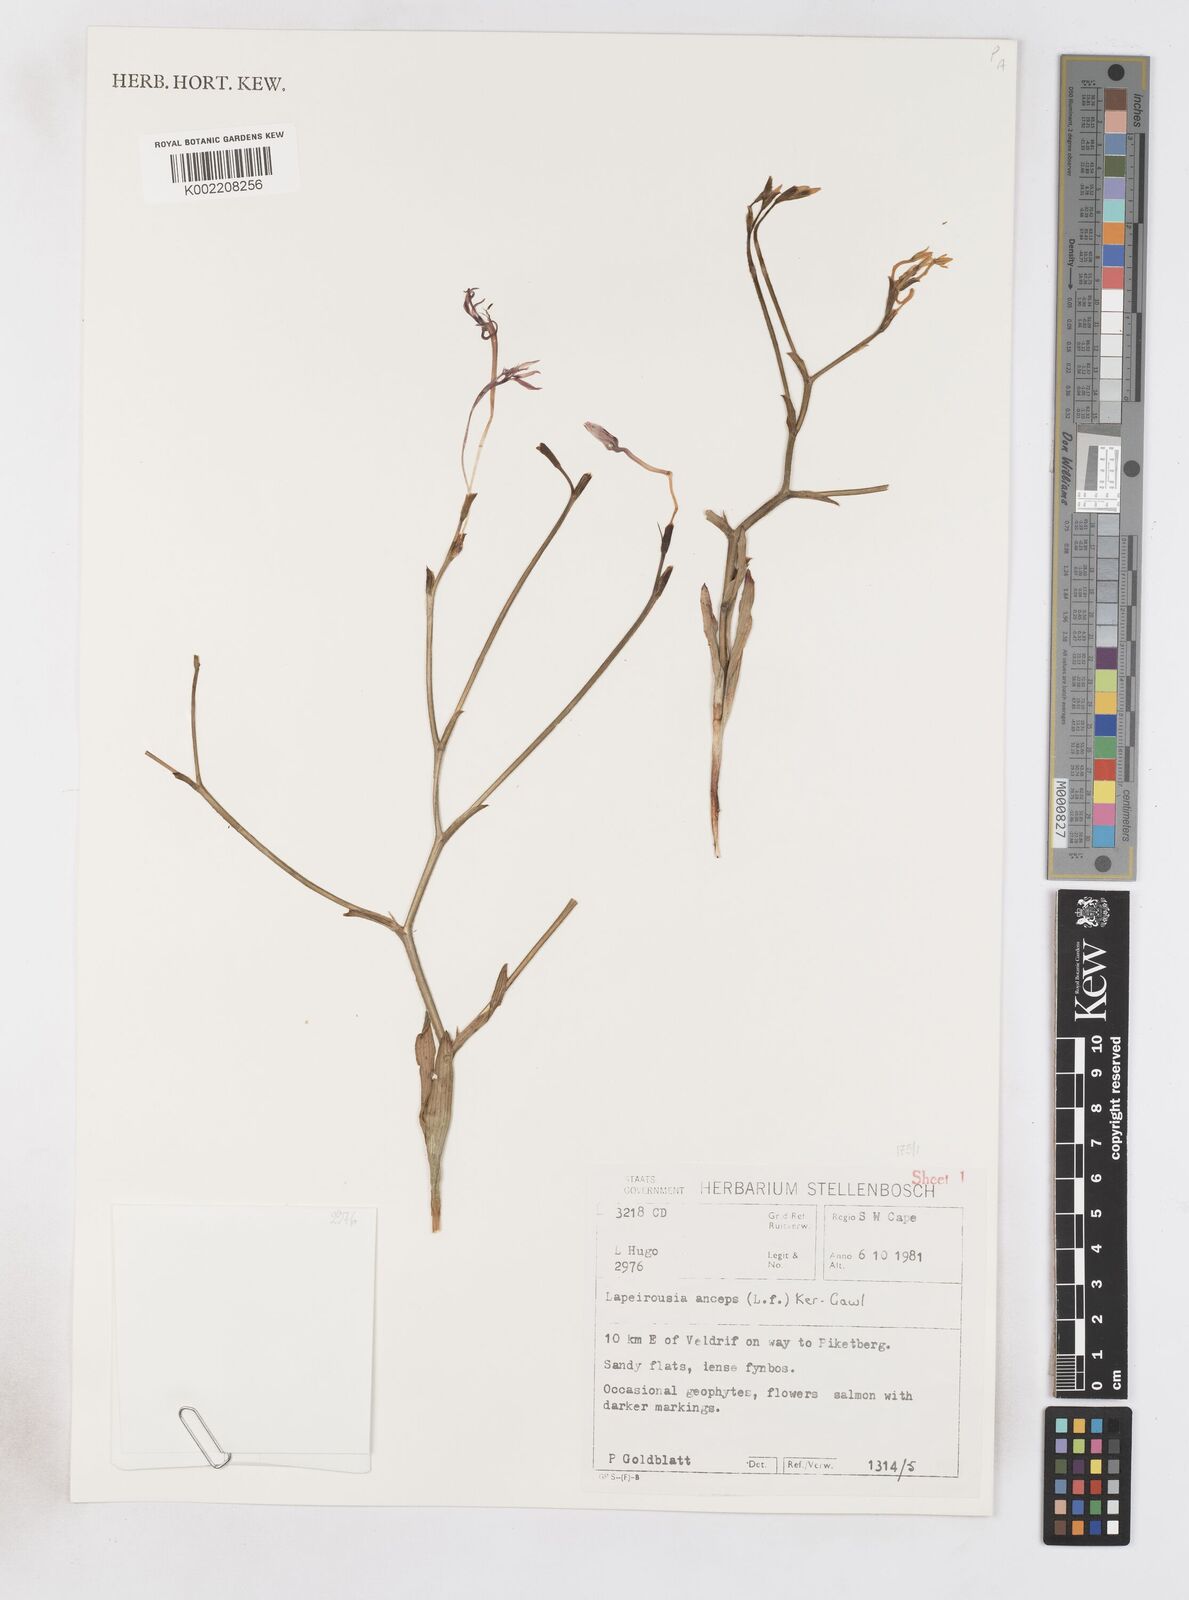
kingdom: Plantae
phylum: Tracheophyta
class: Liliopsida
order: Asparagales
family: Iridaceae
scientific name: Iridaceae
